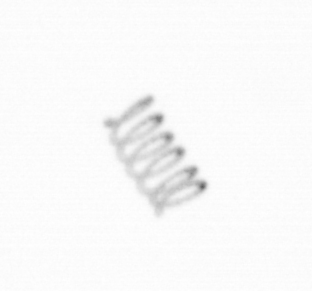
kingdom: Chromista
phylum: Ochrophyta
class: Bacillariophyceae
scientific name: Bacillariophyceae
